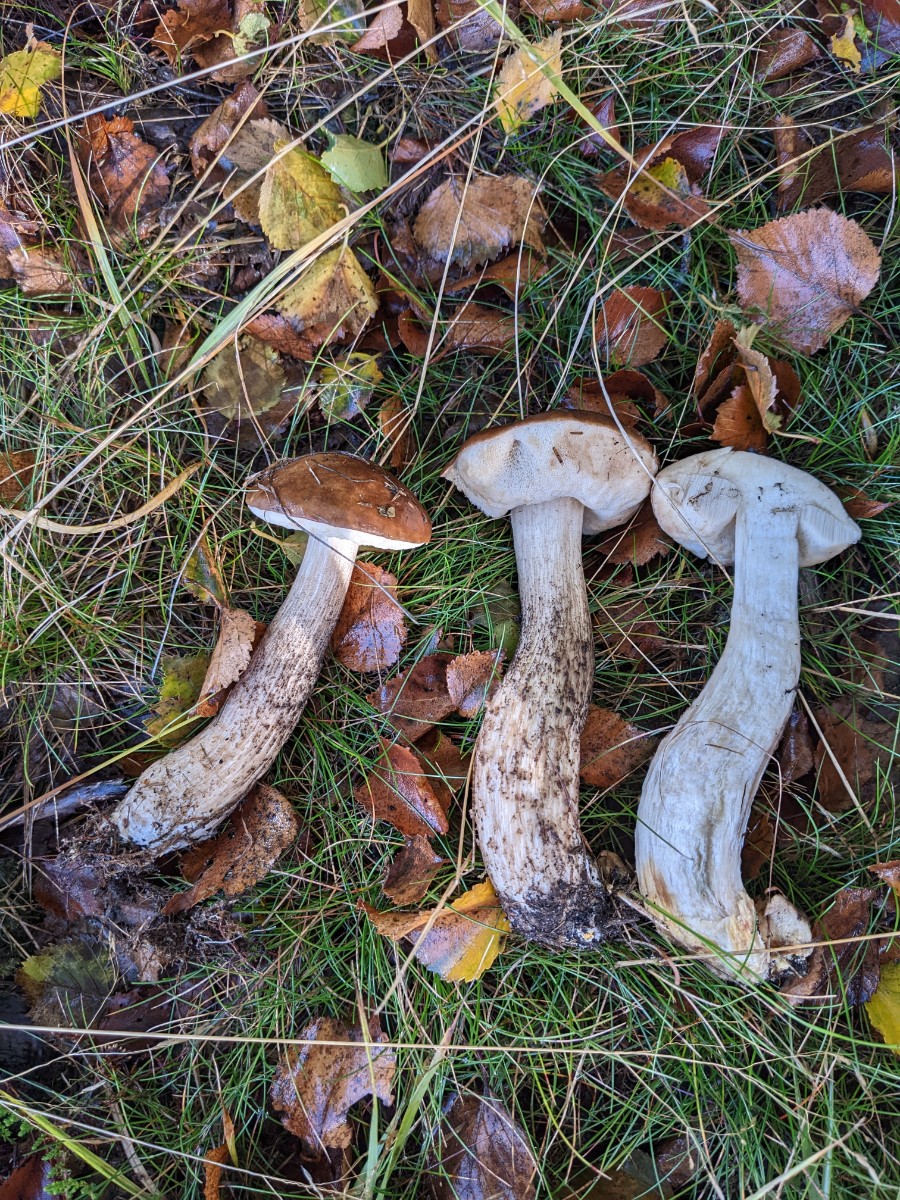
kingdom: Fungi
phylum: Basidiomycota
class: Agaricomycetes
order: Boletales
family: Boletaceae
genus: Leccinum
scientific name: Leccinum scabrum
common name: brun skælrørhat
